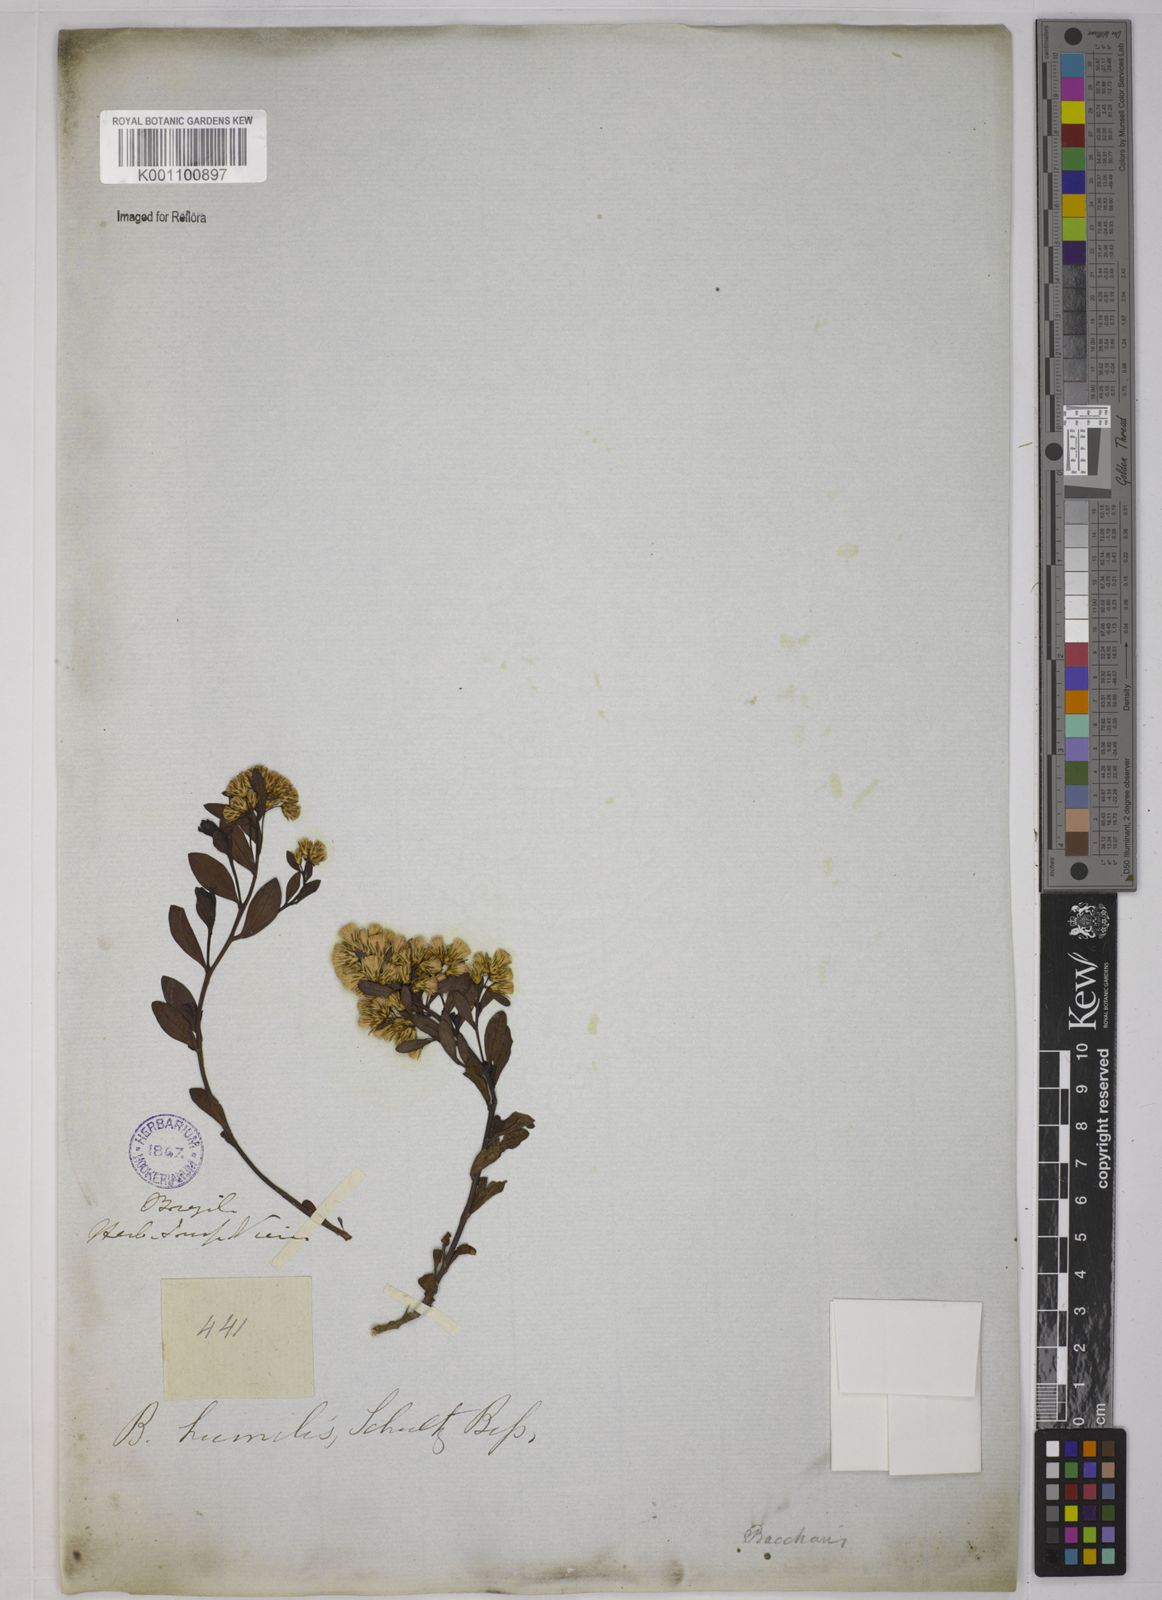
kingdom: Plantae
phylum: Tracheophyta
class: Magnoliopsida
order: Asterales
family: Asteraceae
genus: Baccharis
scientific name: Baccharis humilis
